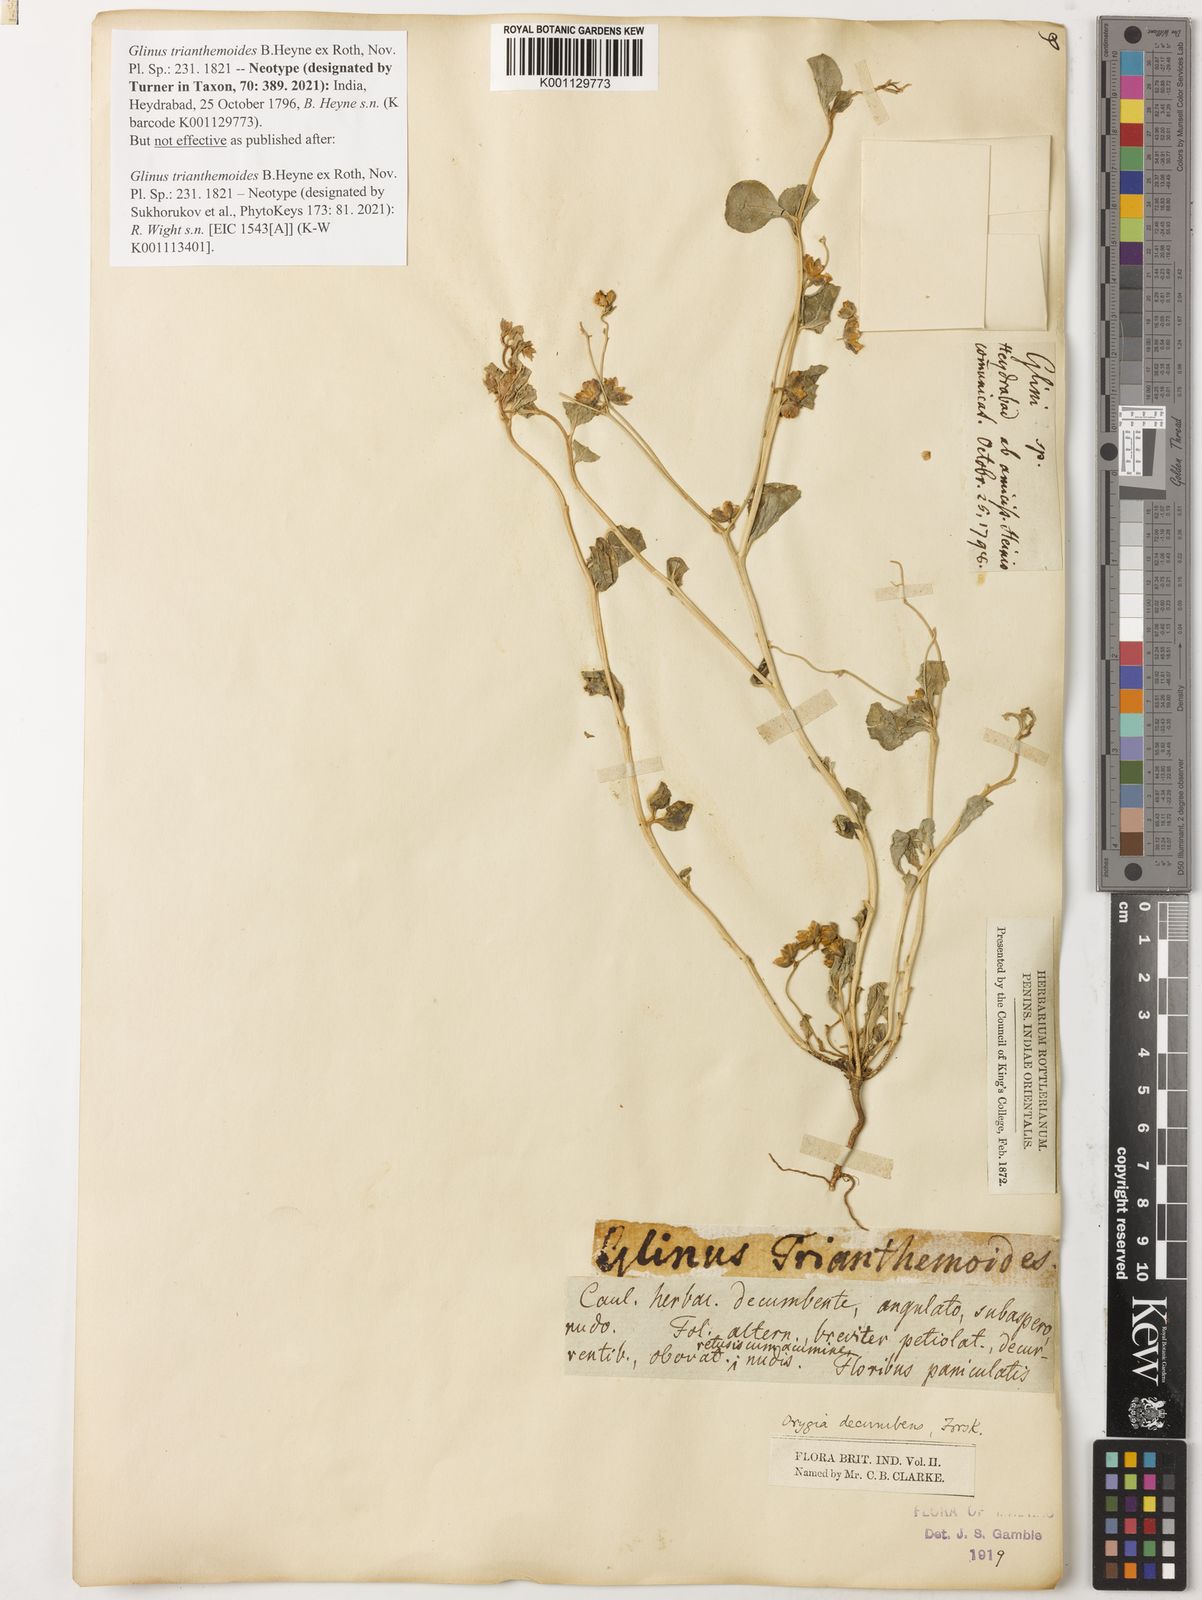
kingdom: Plantae
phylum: Tracheophyta
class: Magnoliopsida
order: Caryophyllales
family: Corbichoniaceae
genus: Corbichonia
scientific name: Corbichonia decumbens
